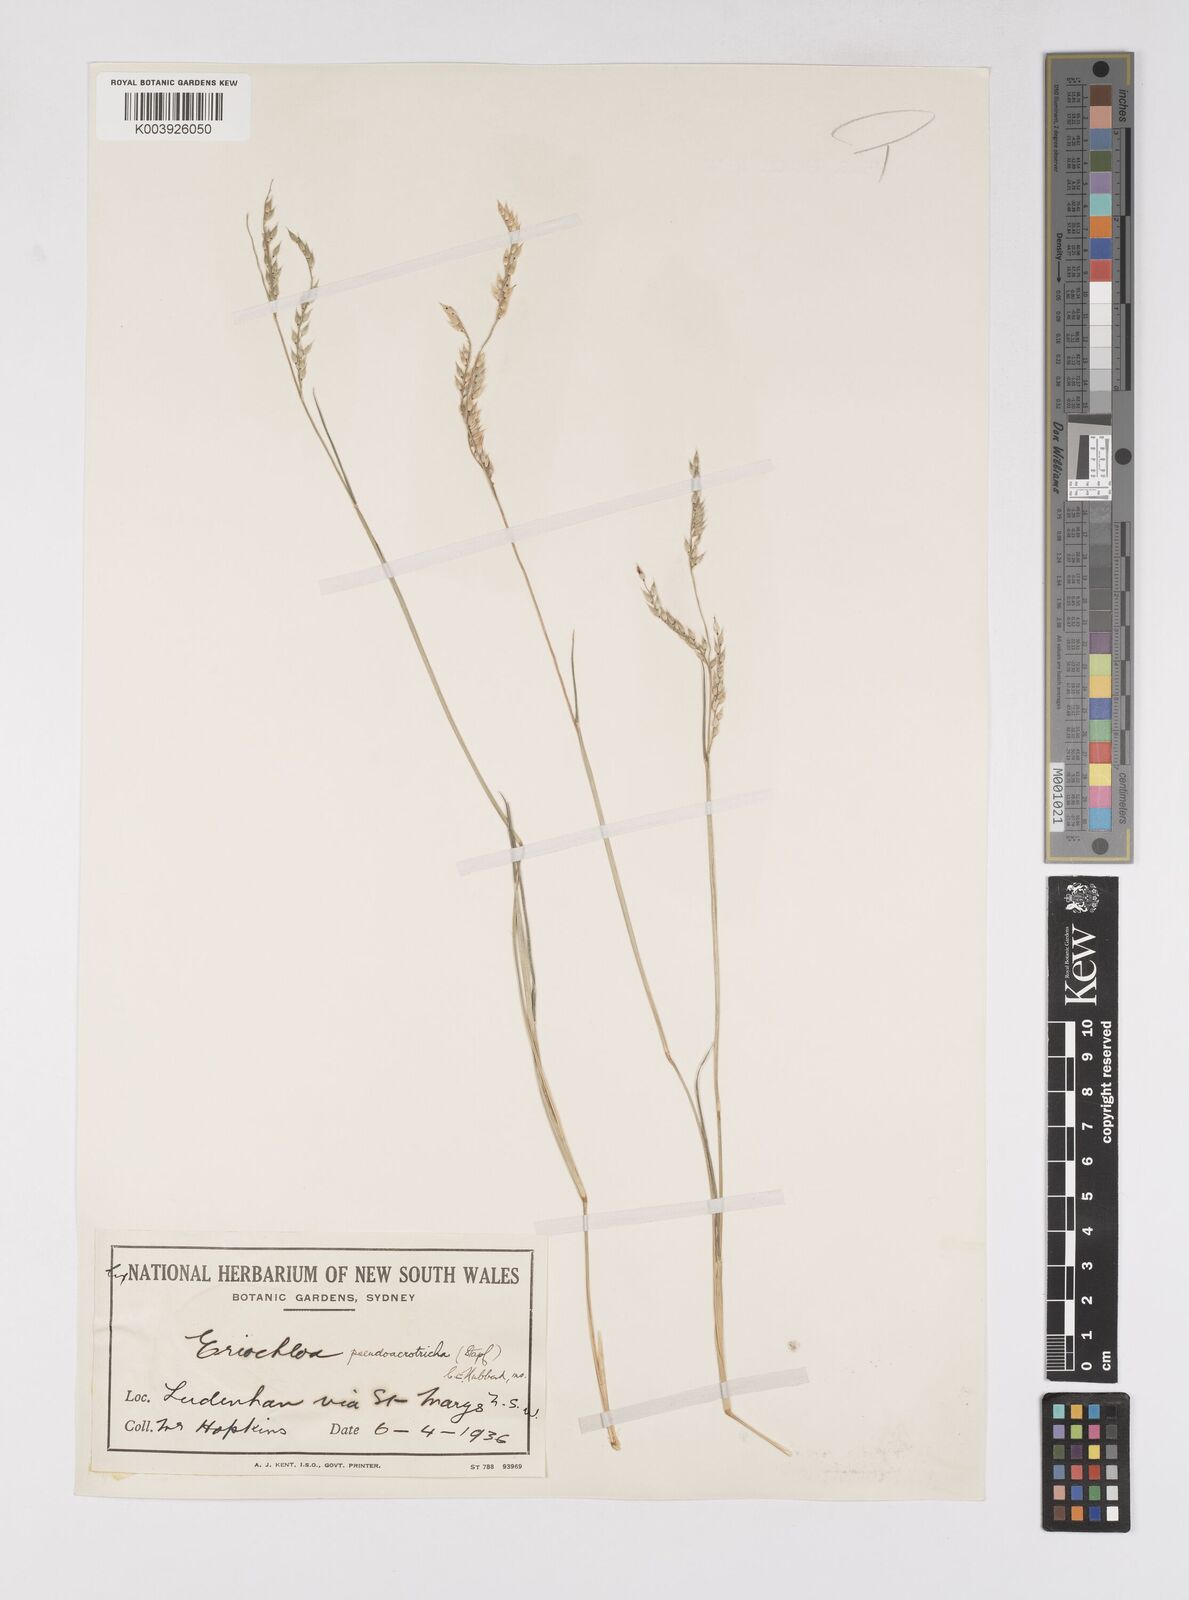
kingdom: Plantae
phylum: Tracheophyta
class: Liliopsida
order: Poales
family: Poaceae
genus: Eriochloa
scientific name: Eriochloa pseudoacrotricha
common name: Perennial cup-grass
